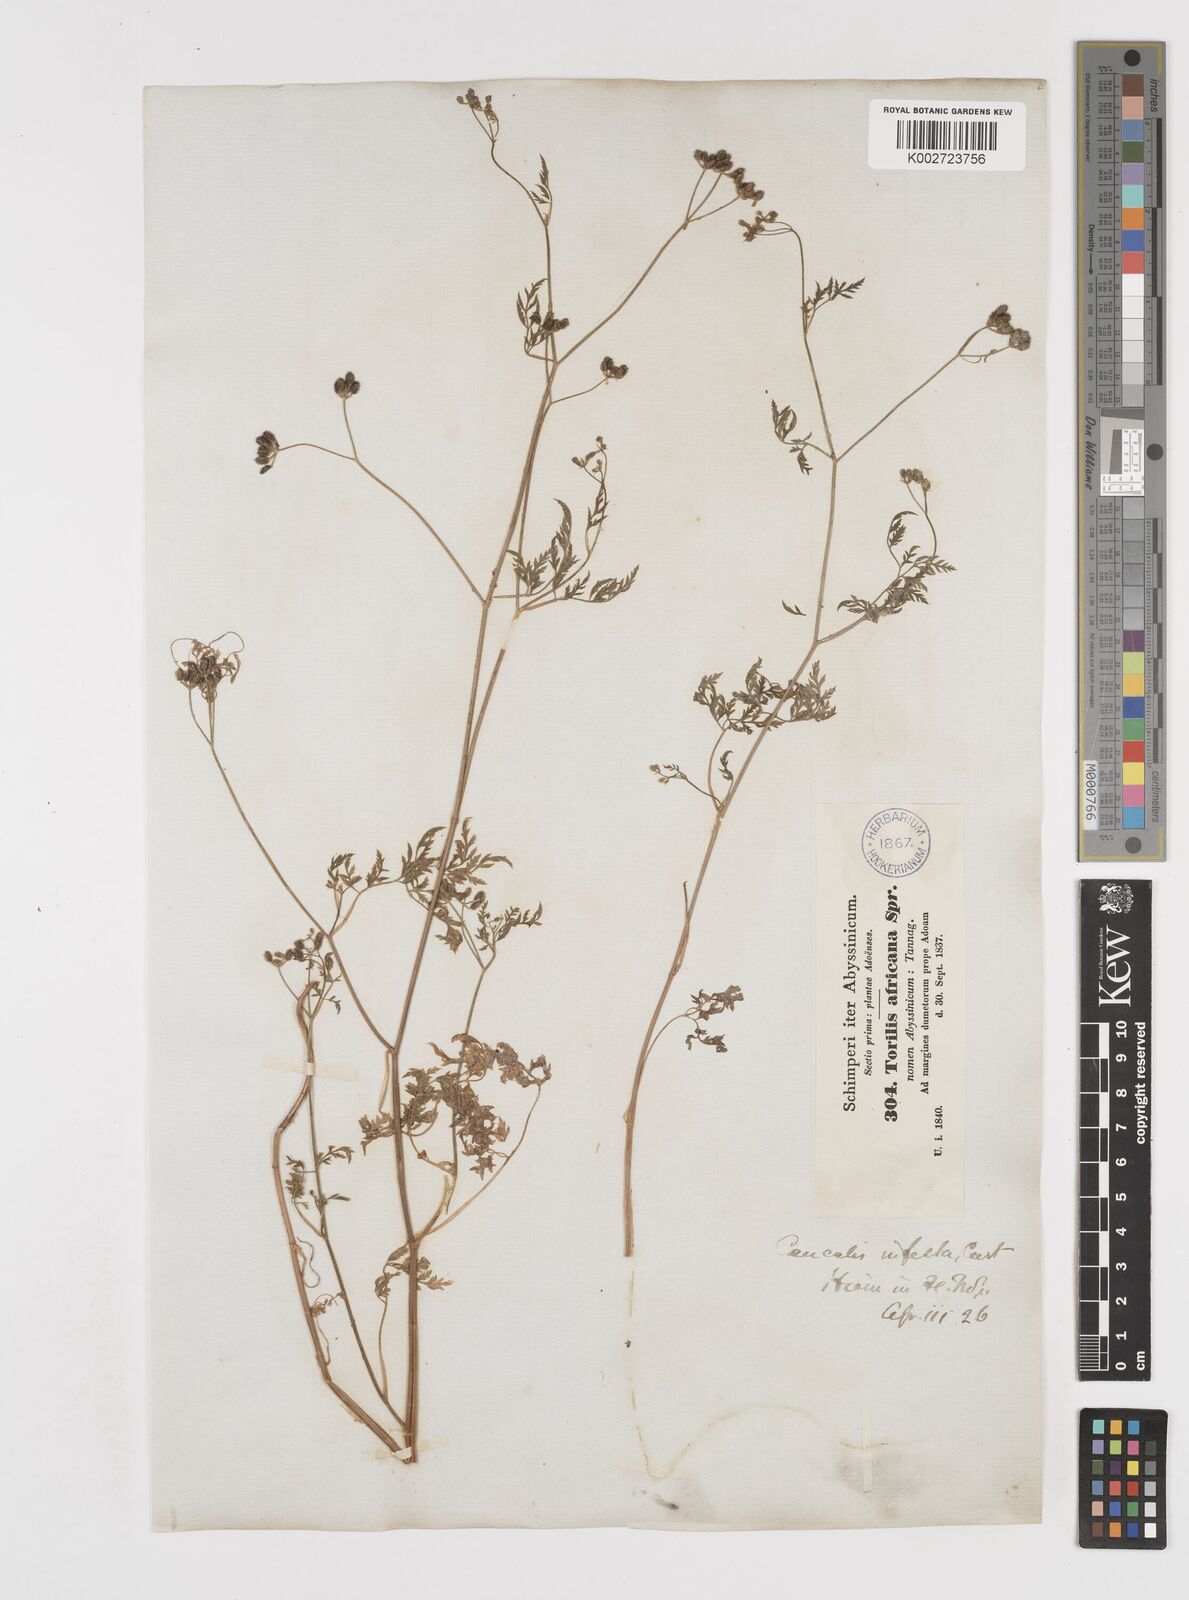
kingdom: Plantae
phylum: Tracheophyta
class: Magnoliopsida
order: Apiales
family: Apiaceae
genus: Torilis
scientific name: Torilis arvensis
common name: Spreading hedge-parsley
